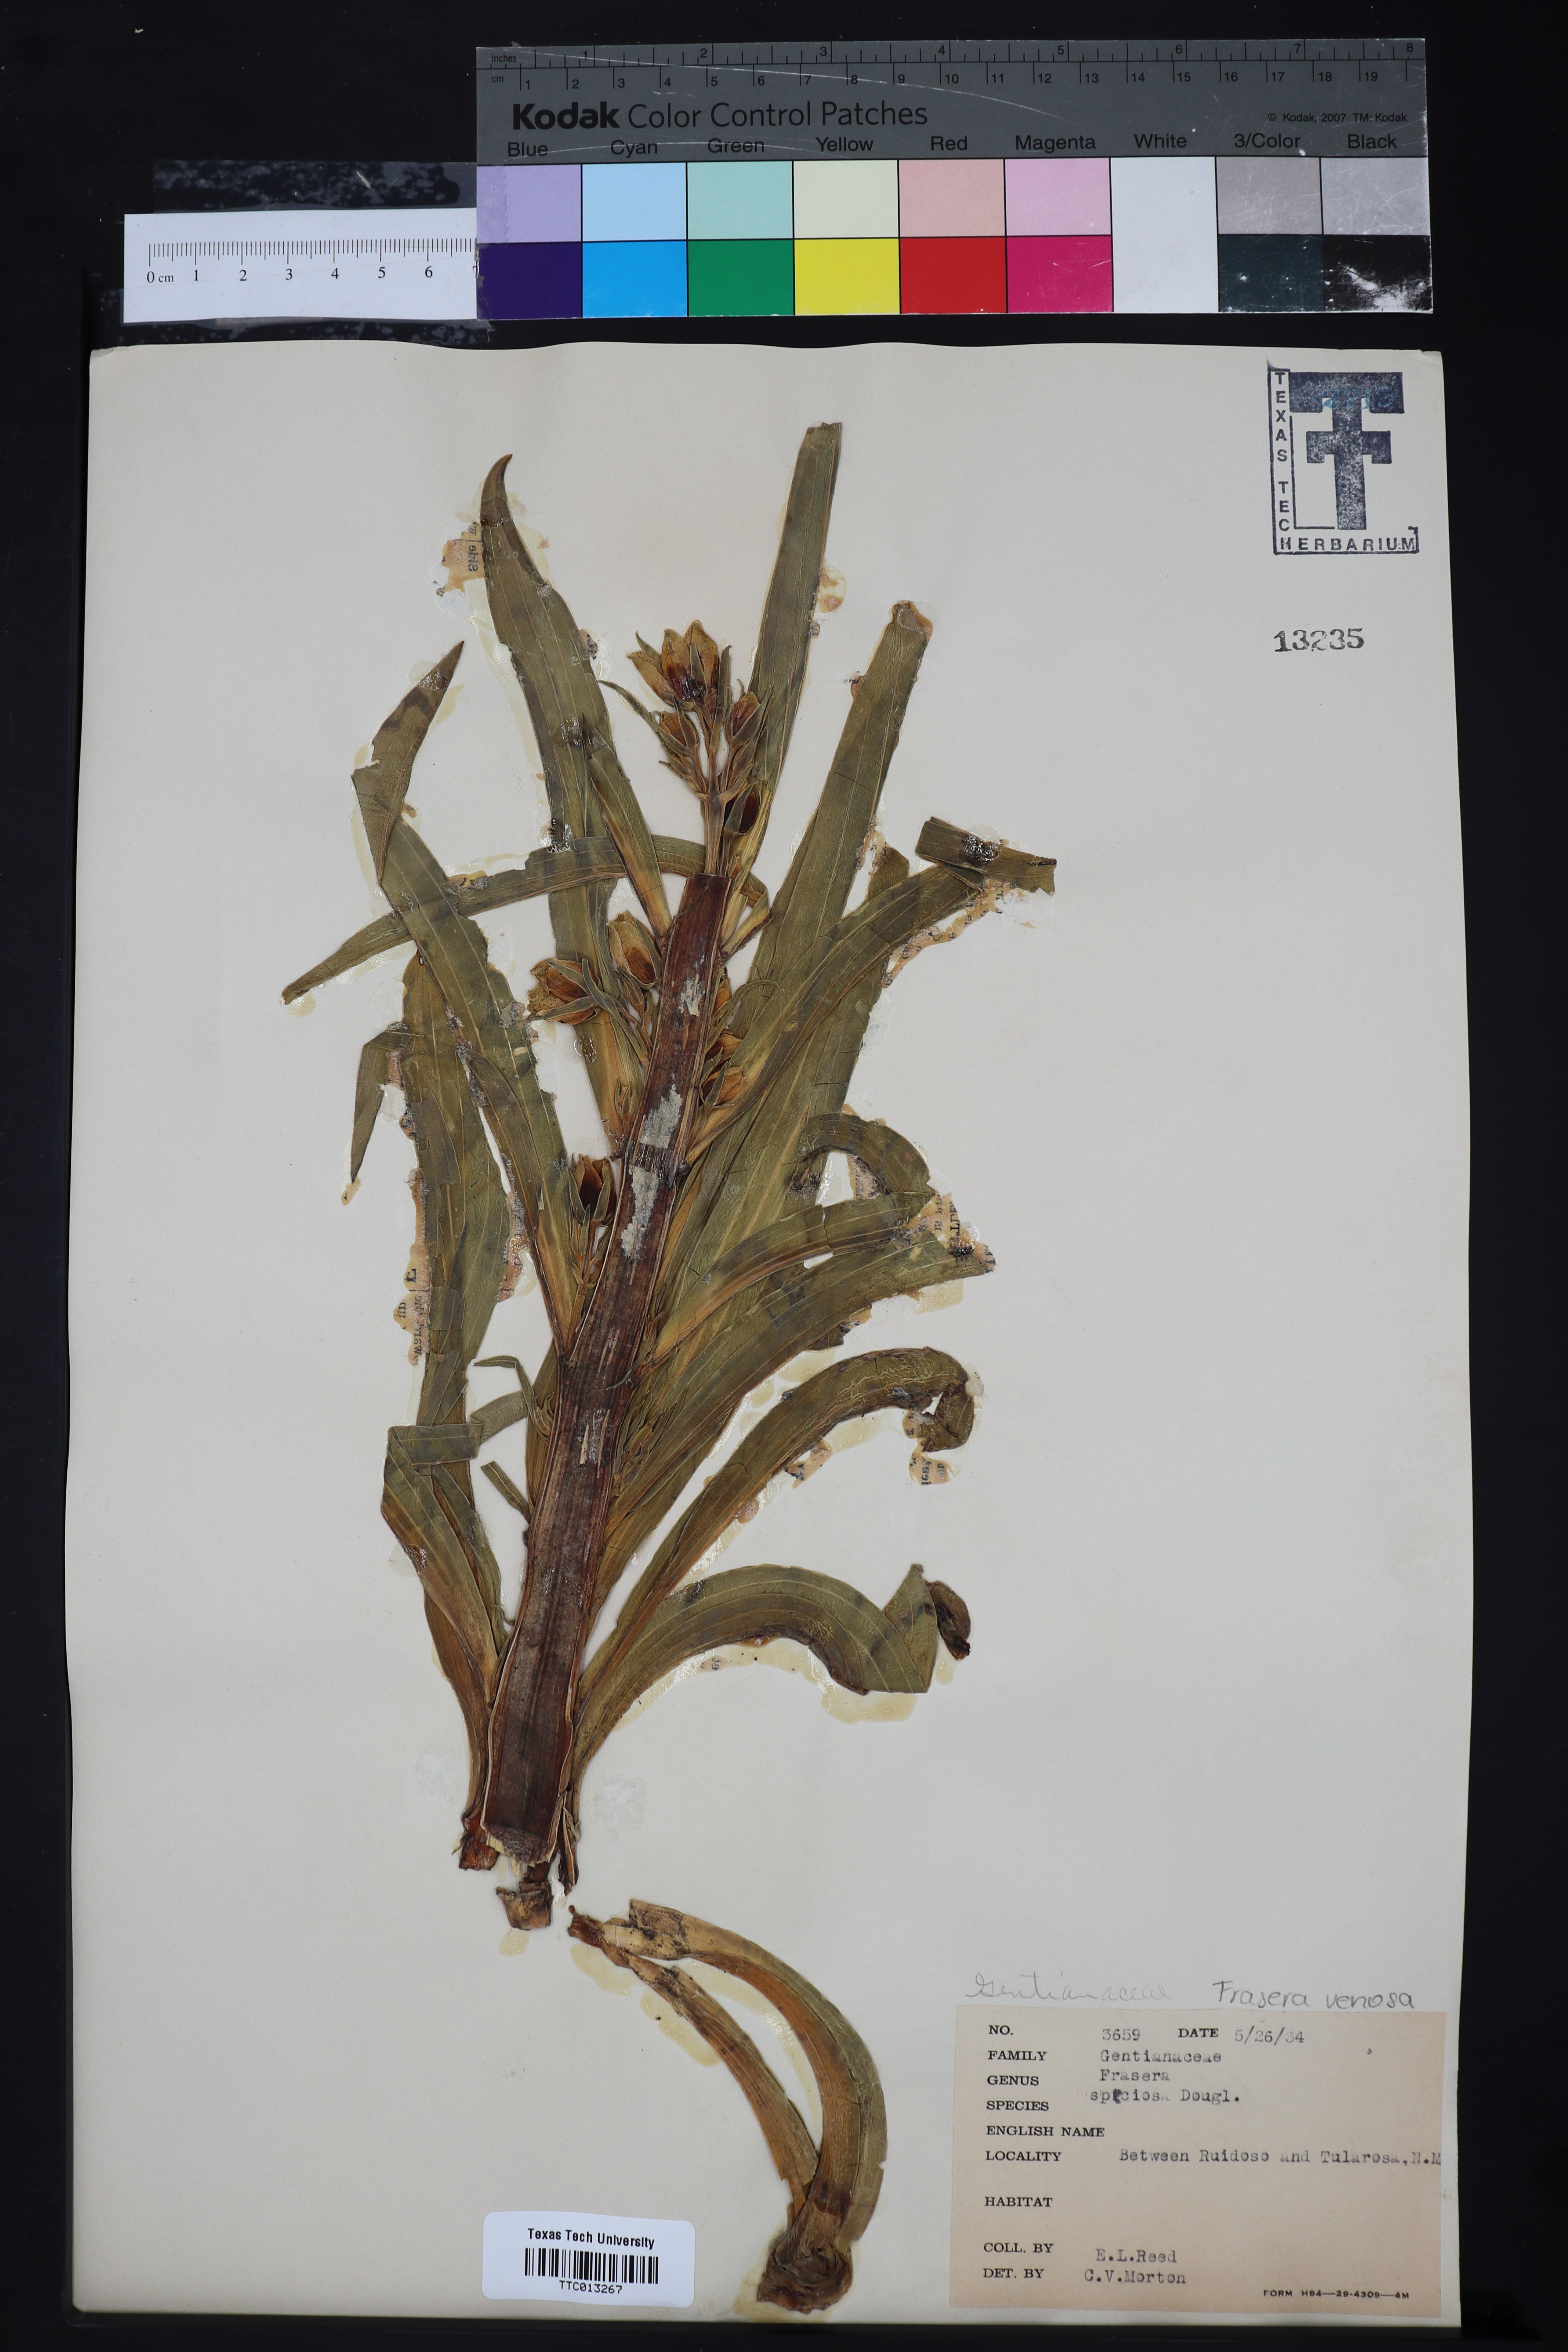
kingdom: Plantae
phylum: Tracheophyta
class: Magnoliopsida
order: Gentianales
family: Gentianaceae
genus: Frasera
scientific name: Frasera speciosa
